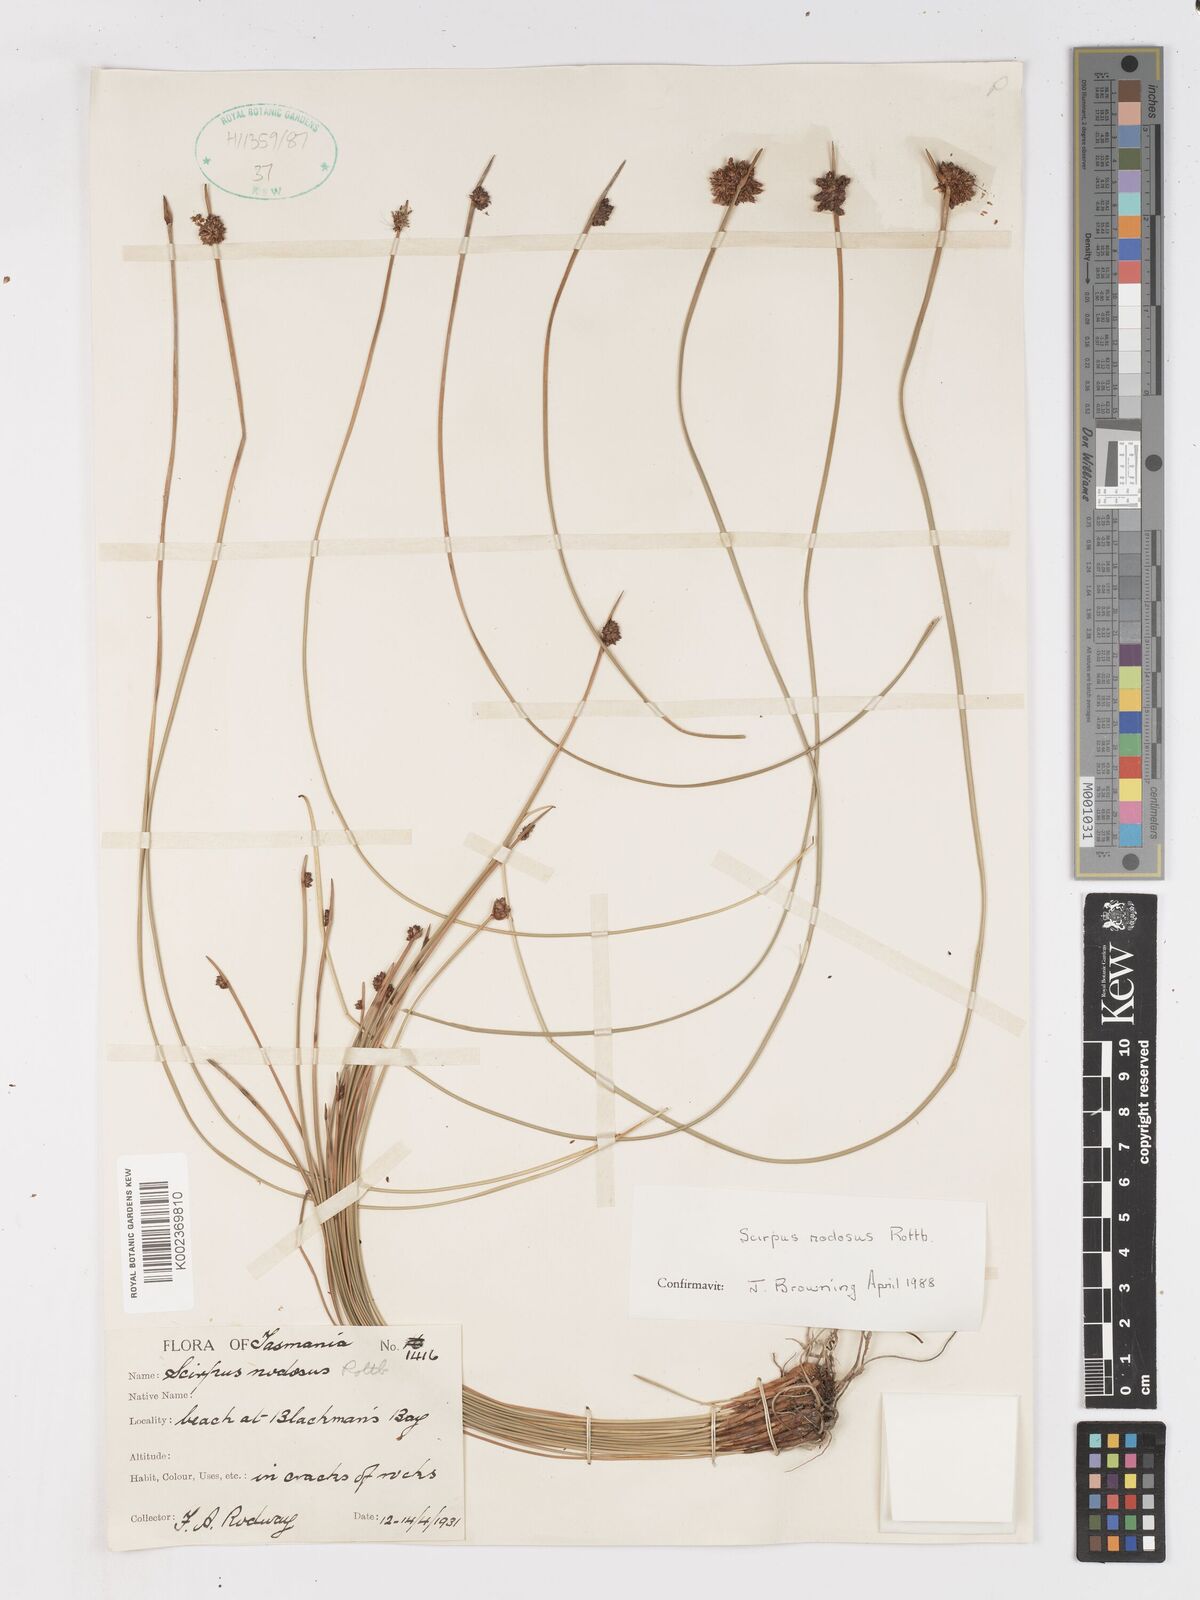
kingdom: Plantae
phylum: Tracheophyta
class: Liliopsida
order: Poales
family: Cyperaceae
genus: Ficinia
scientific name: Ficinia nodosa
